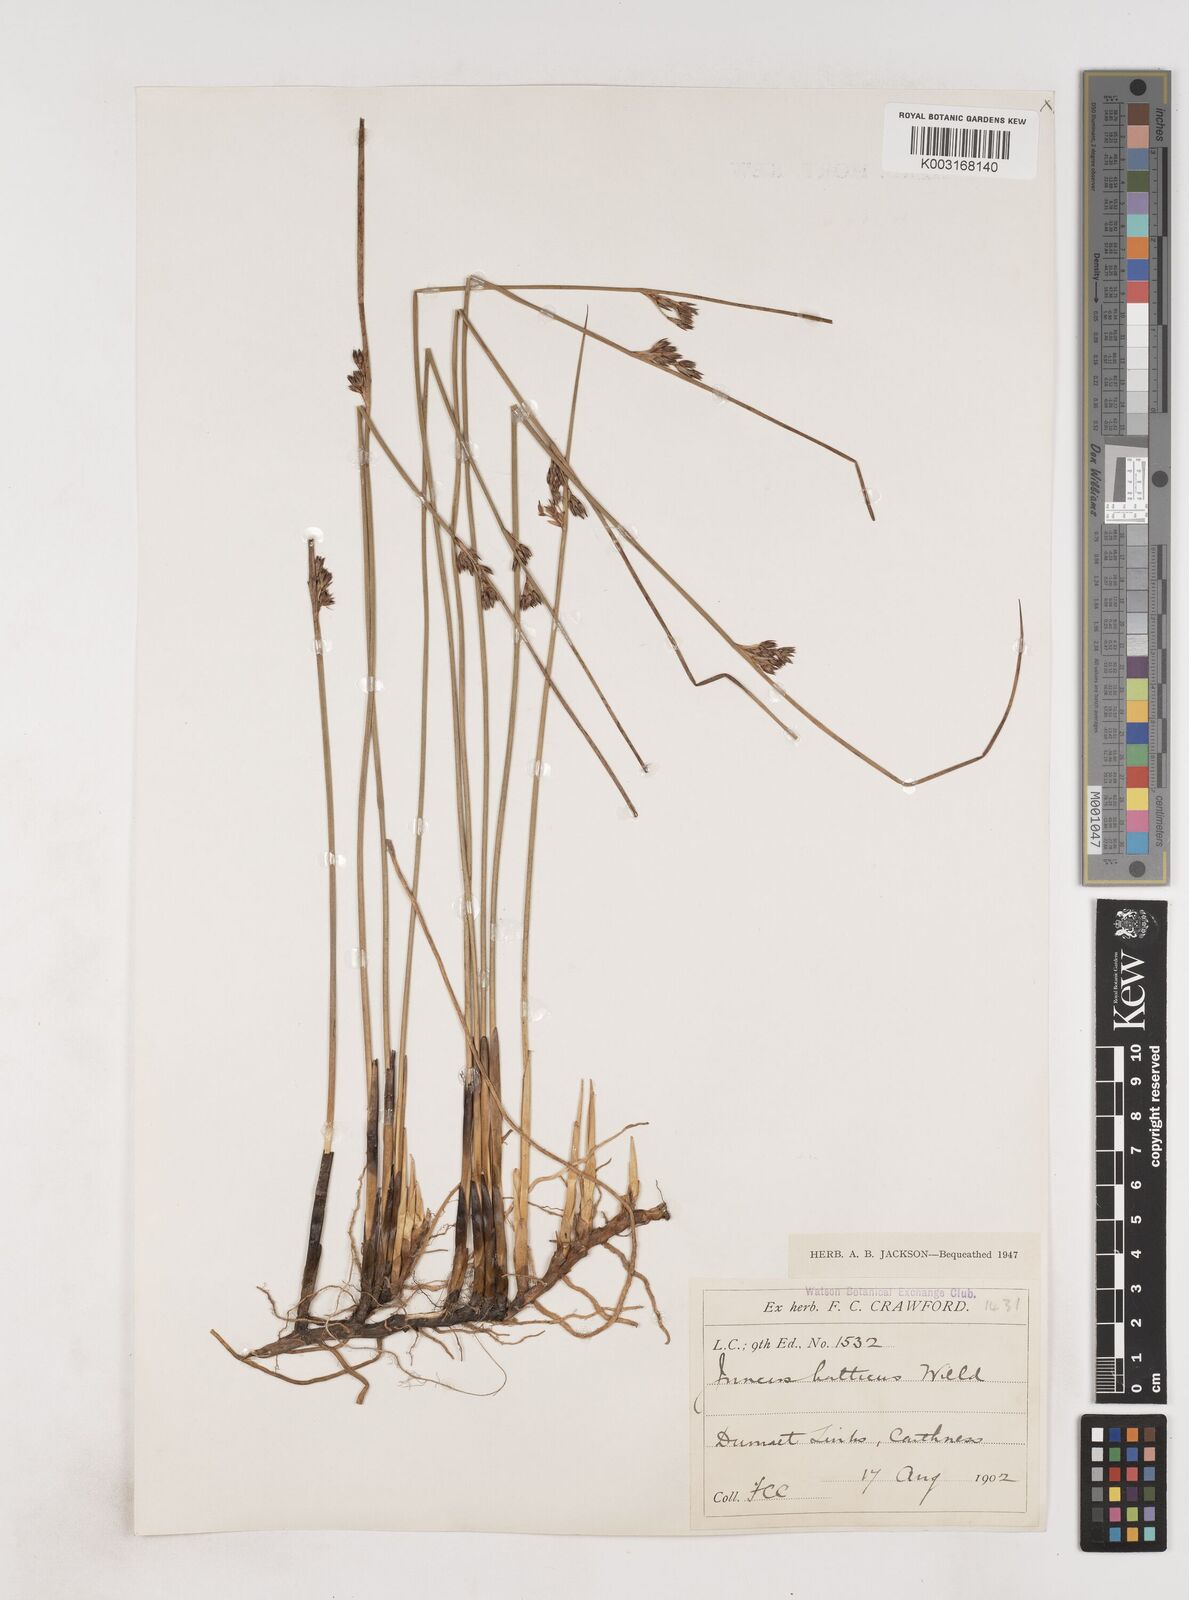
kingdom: Plantae
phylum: Tracheophyta
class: Liliopsida
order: Poales
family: Juncaceae
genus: Juncus
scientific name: Juncus balticus
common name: Baltic rush
